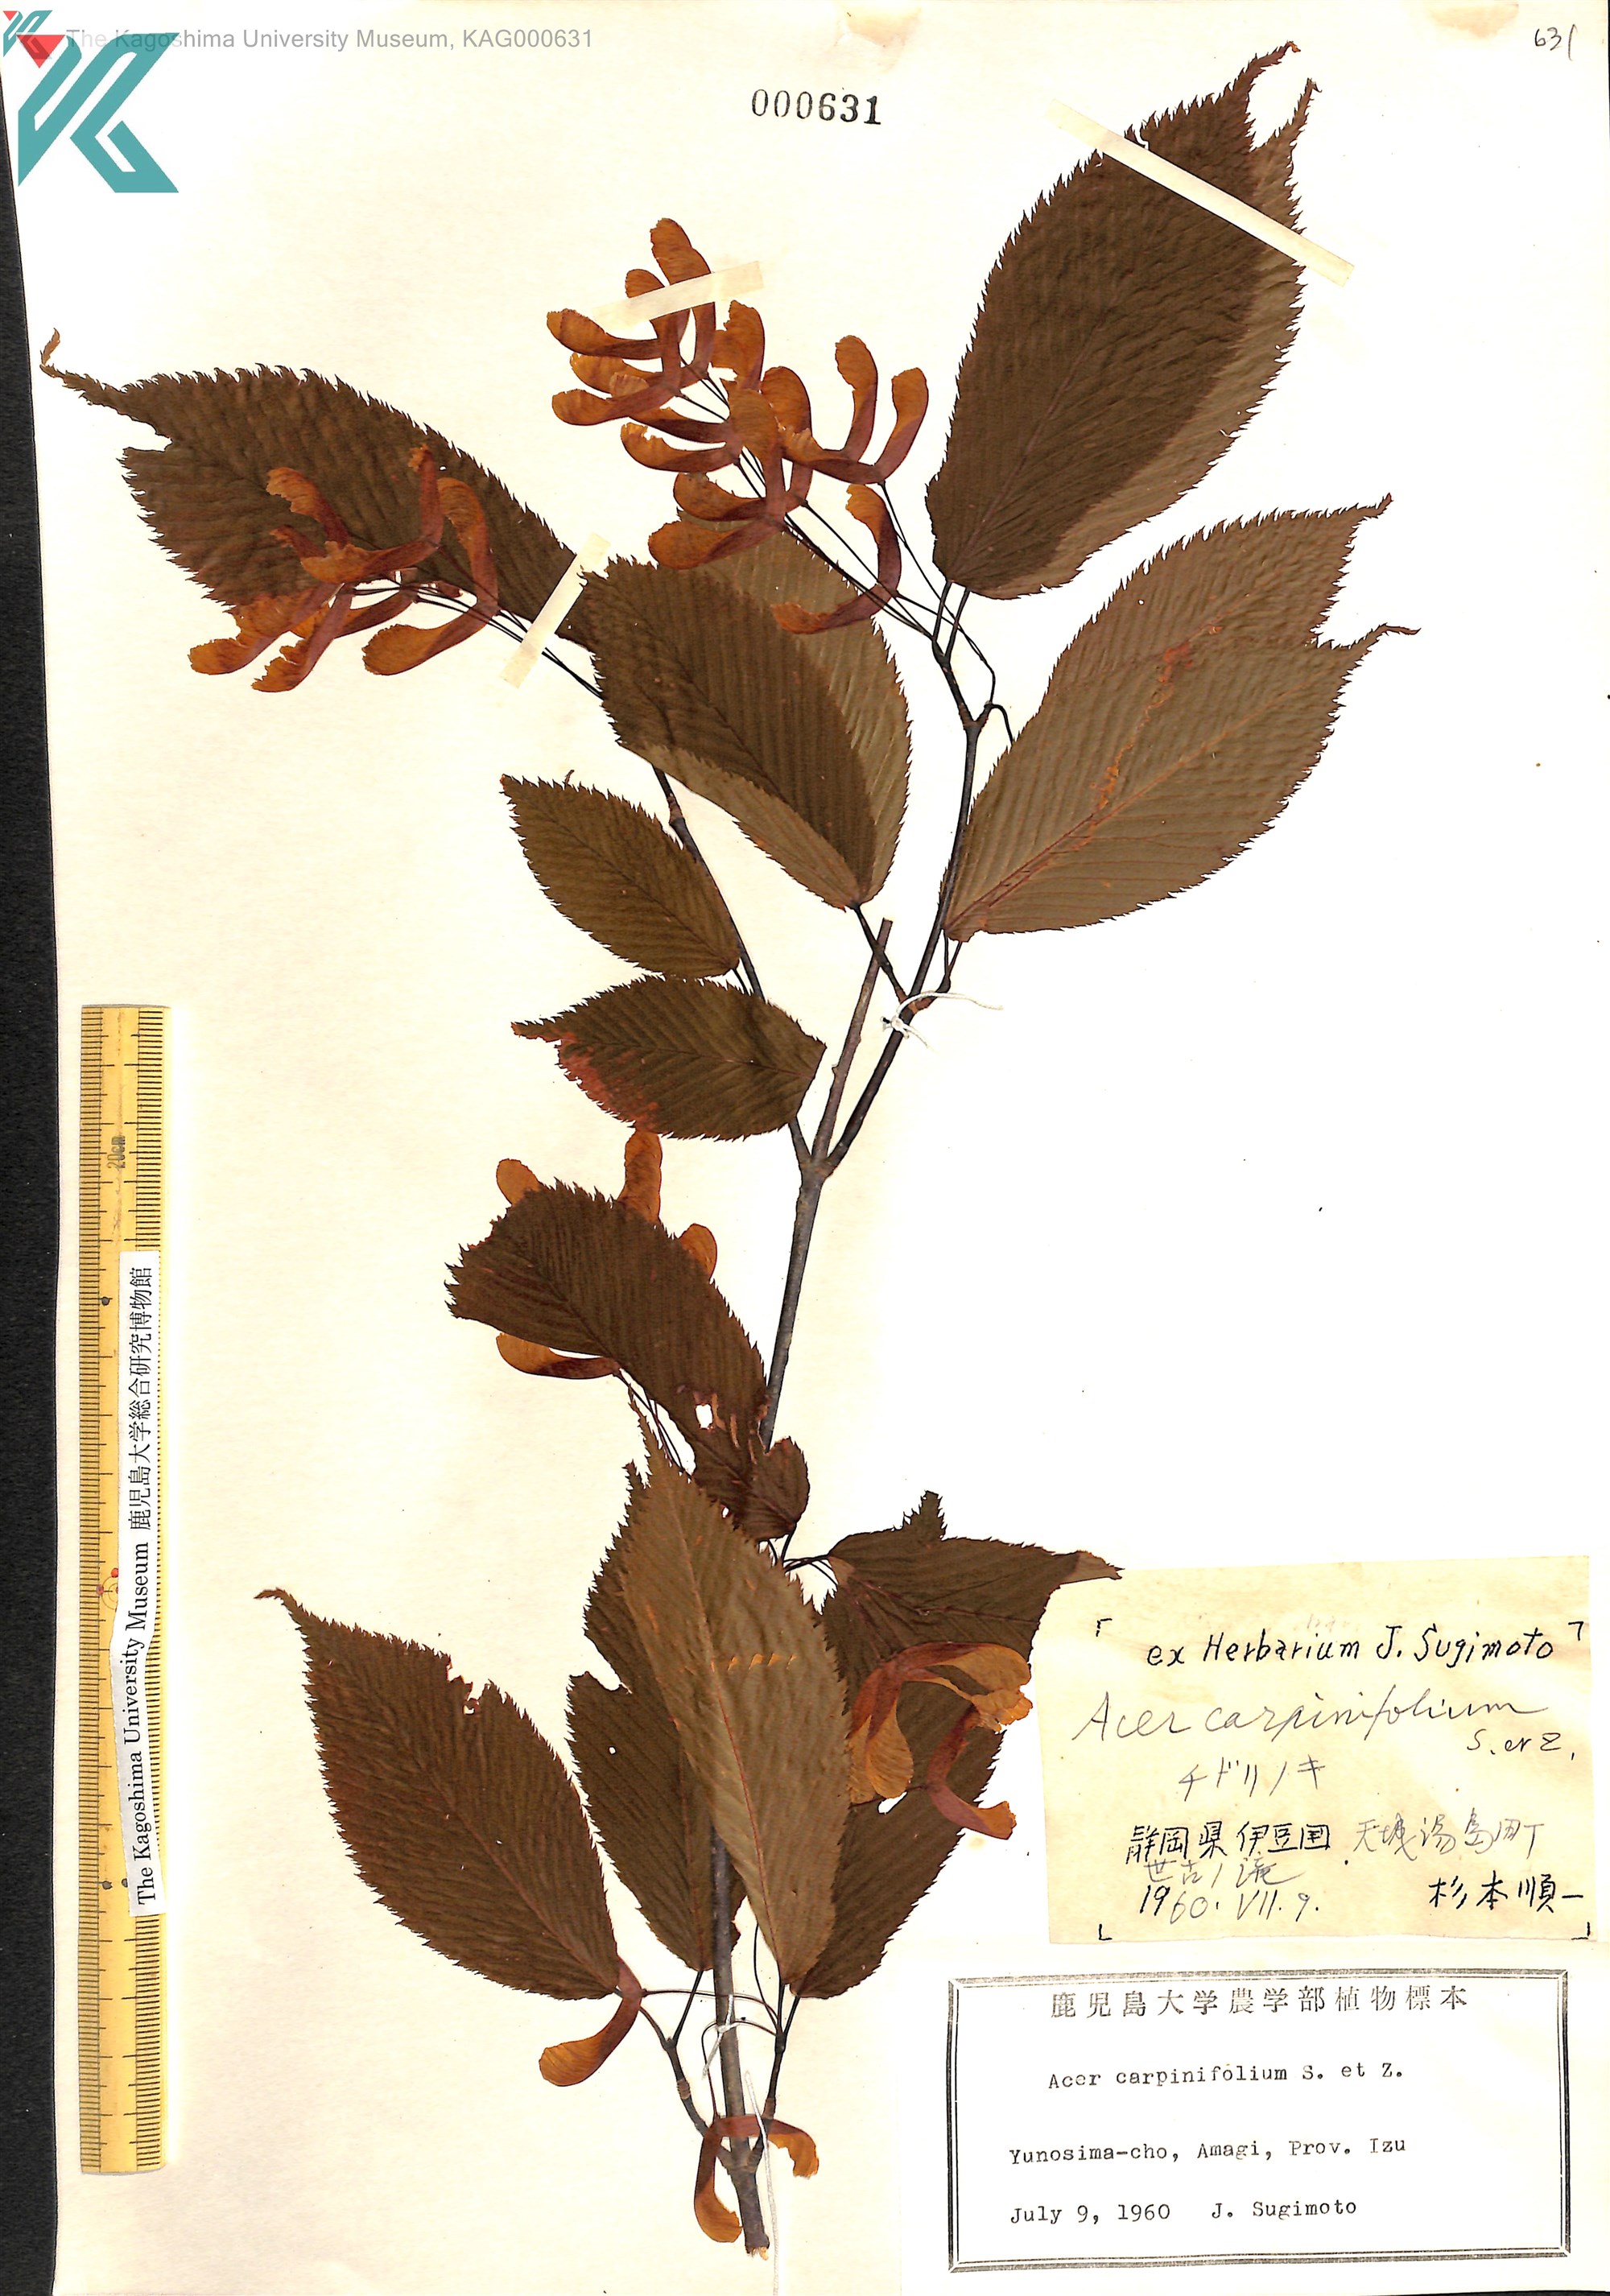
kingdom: Plantae
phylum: Tracheophyta
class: Magnoliopsida
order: Sapindales
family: Sapindaceae
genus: Acer
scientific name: Acer carpinifolium
